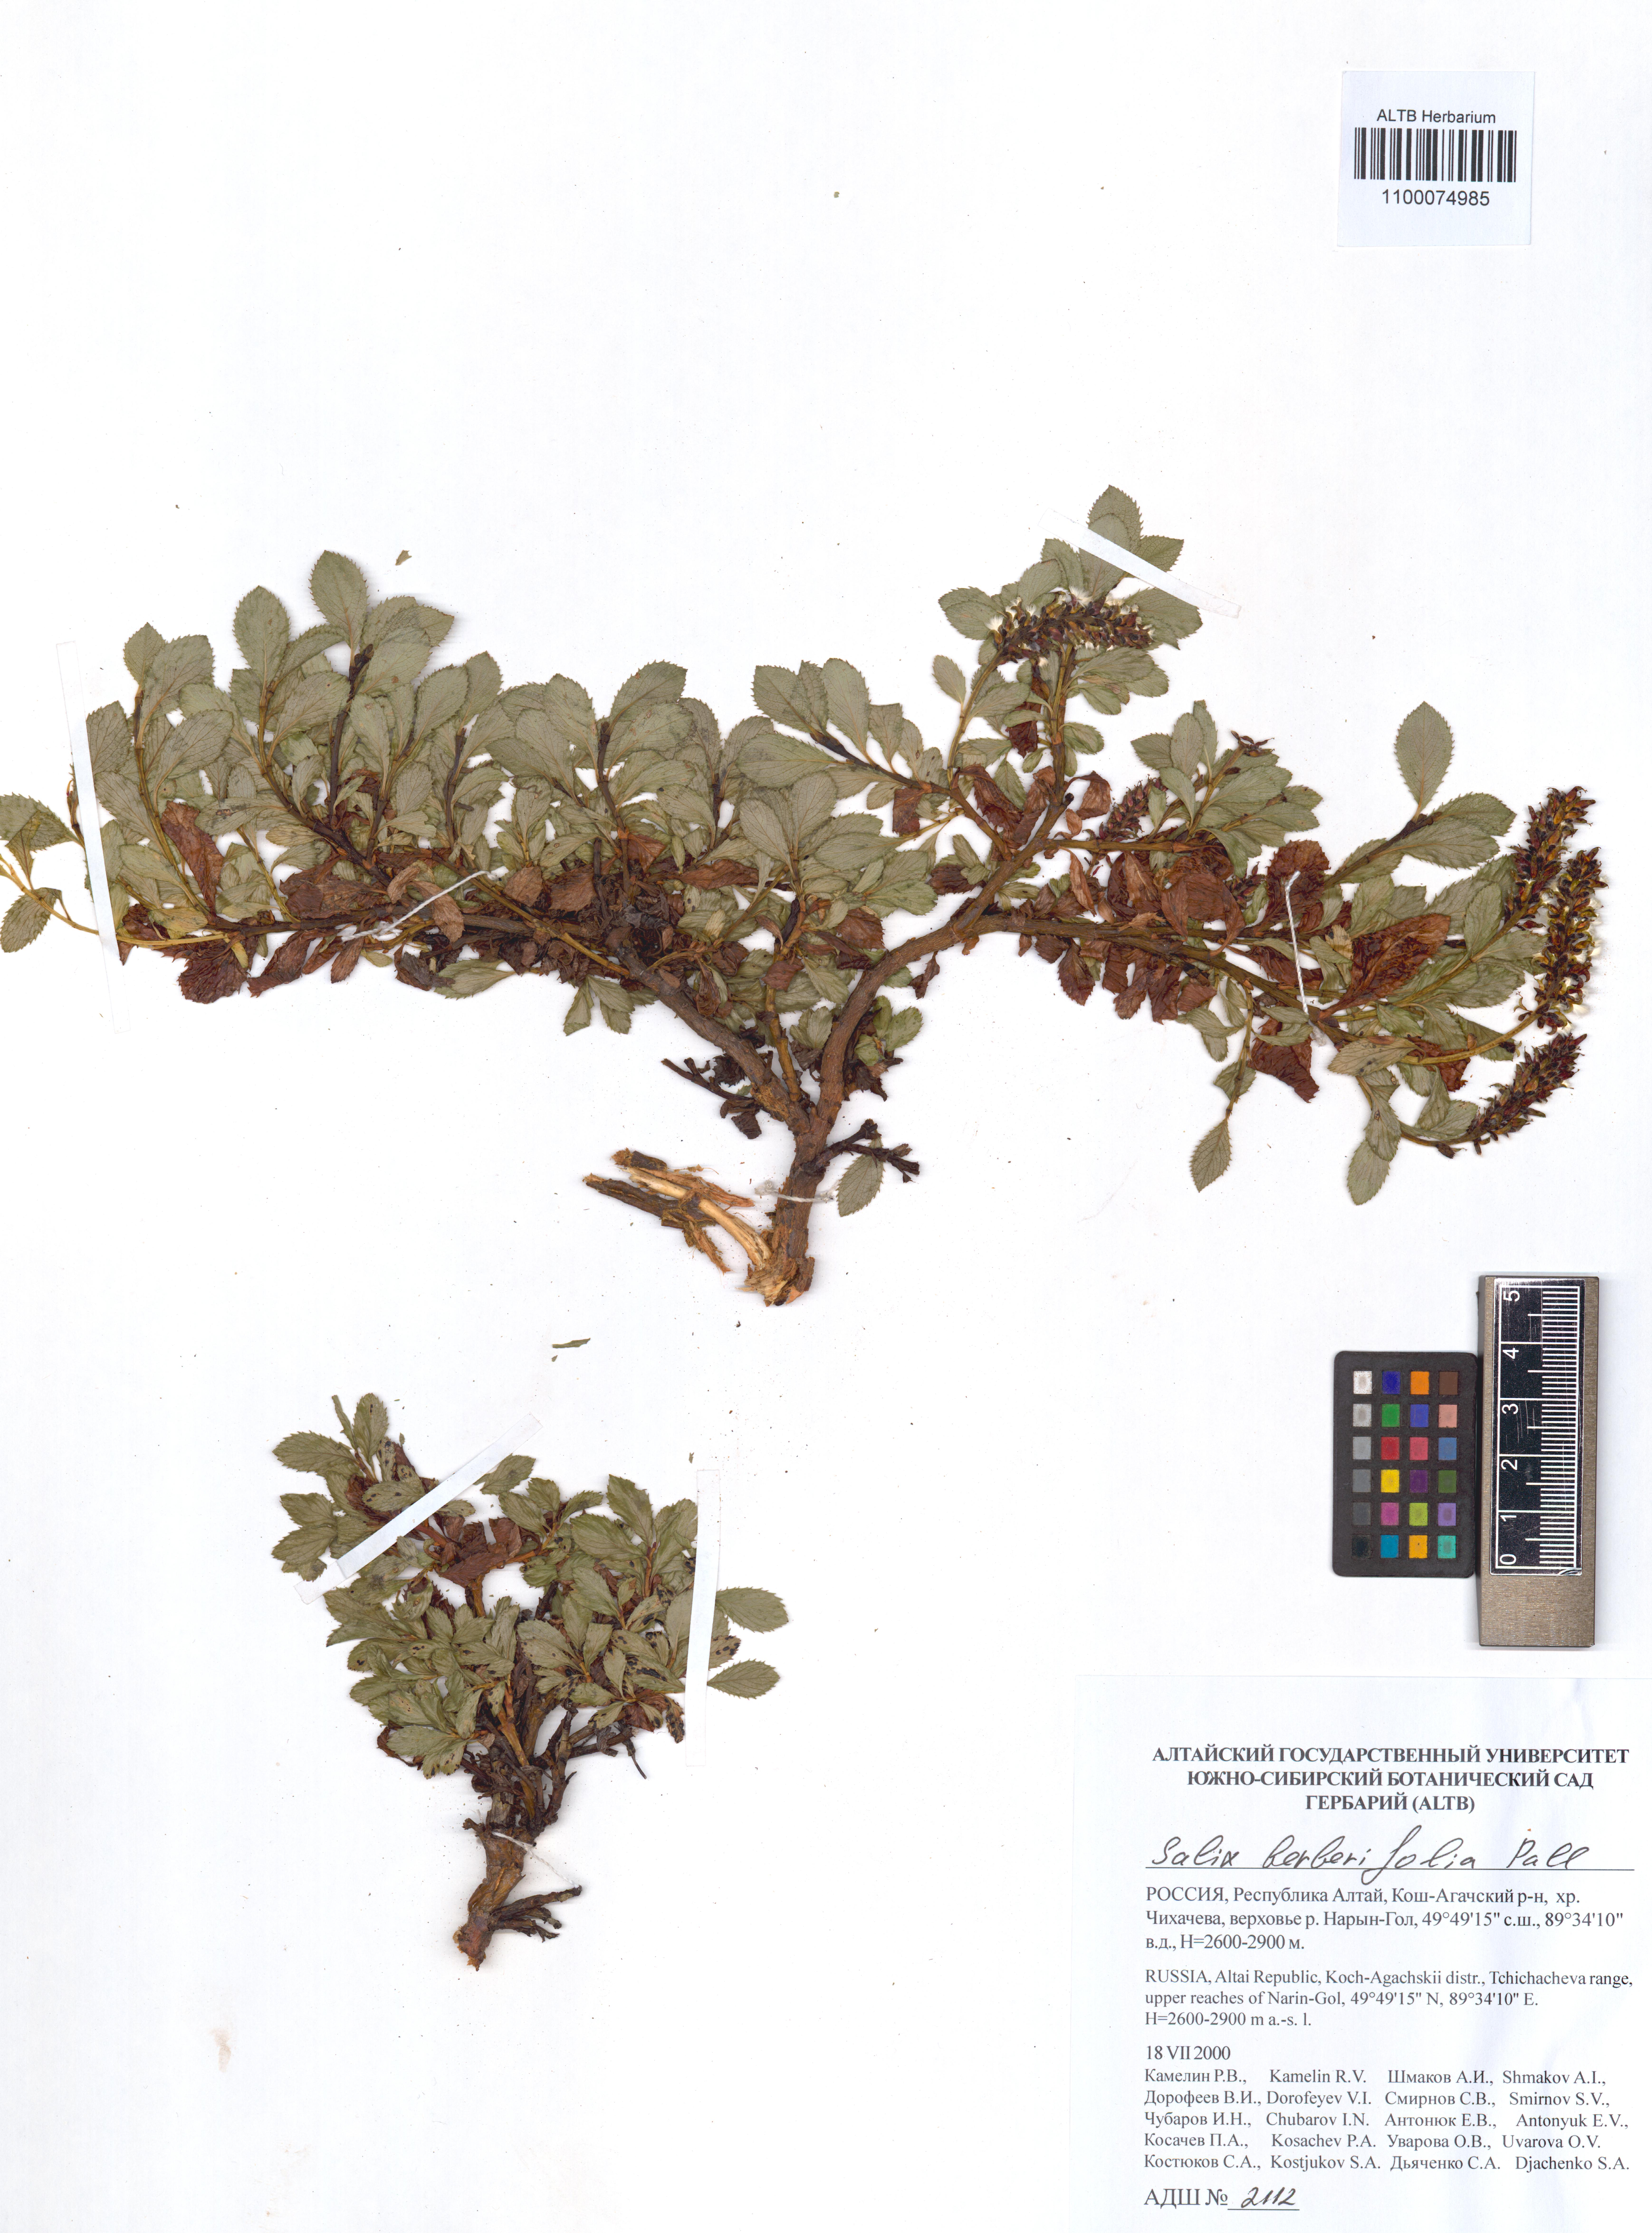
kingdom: Plantae
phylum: Tracheophyta
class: Magnoliopsida
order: Malpighiales
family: Salicaceae
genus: Salix
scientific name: Salix berberifolia
